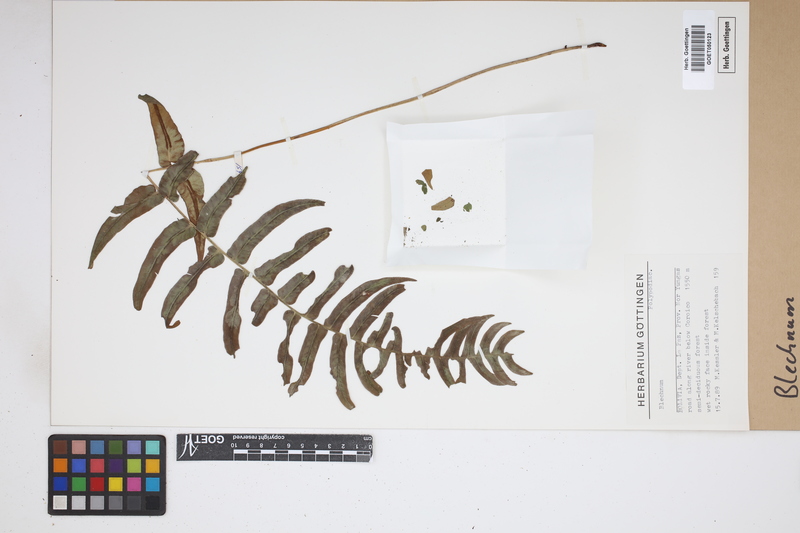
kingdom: Plantae
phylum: Tracheophyta
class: Polypodiopsida
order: Polypodiales
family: Blechnaceae
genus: Blechnum
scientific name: Blechnum
